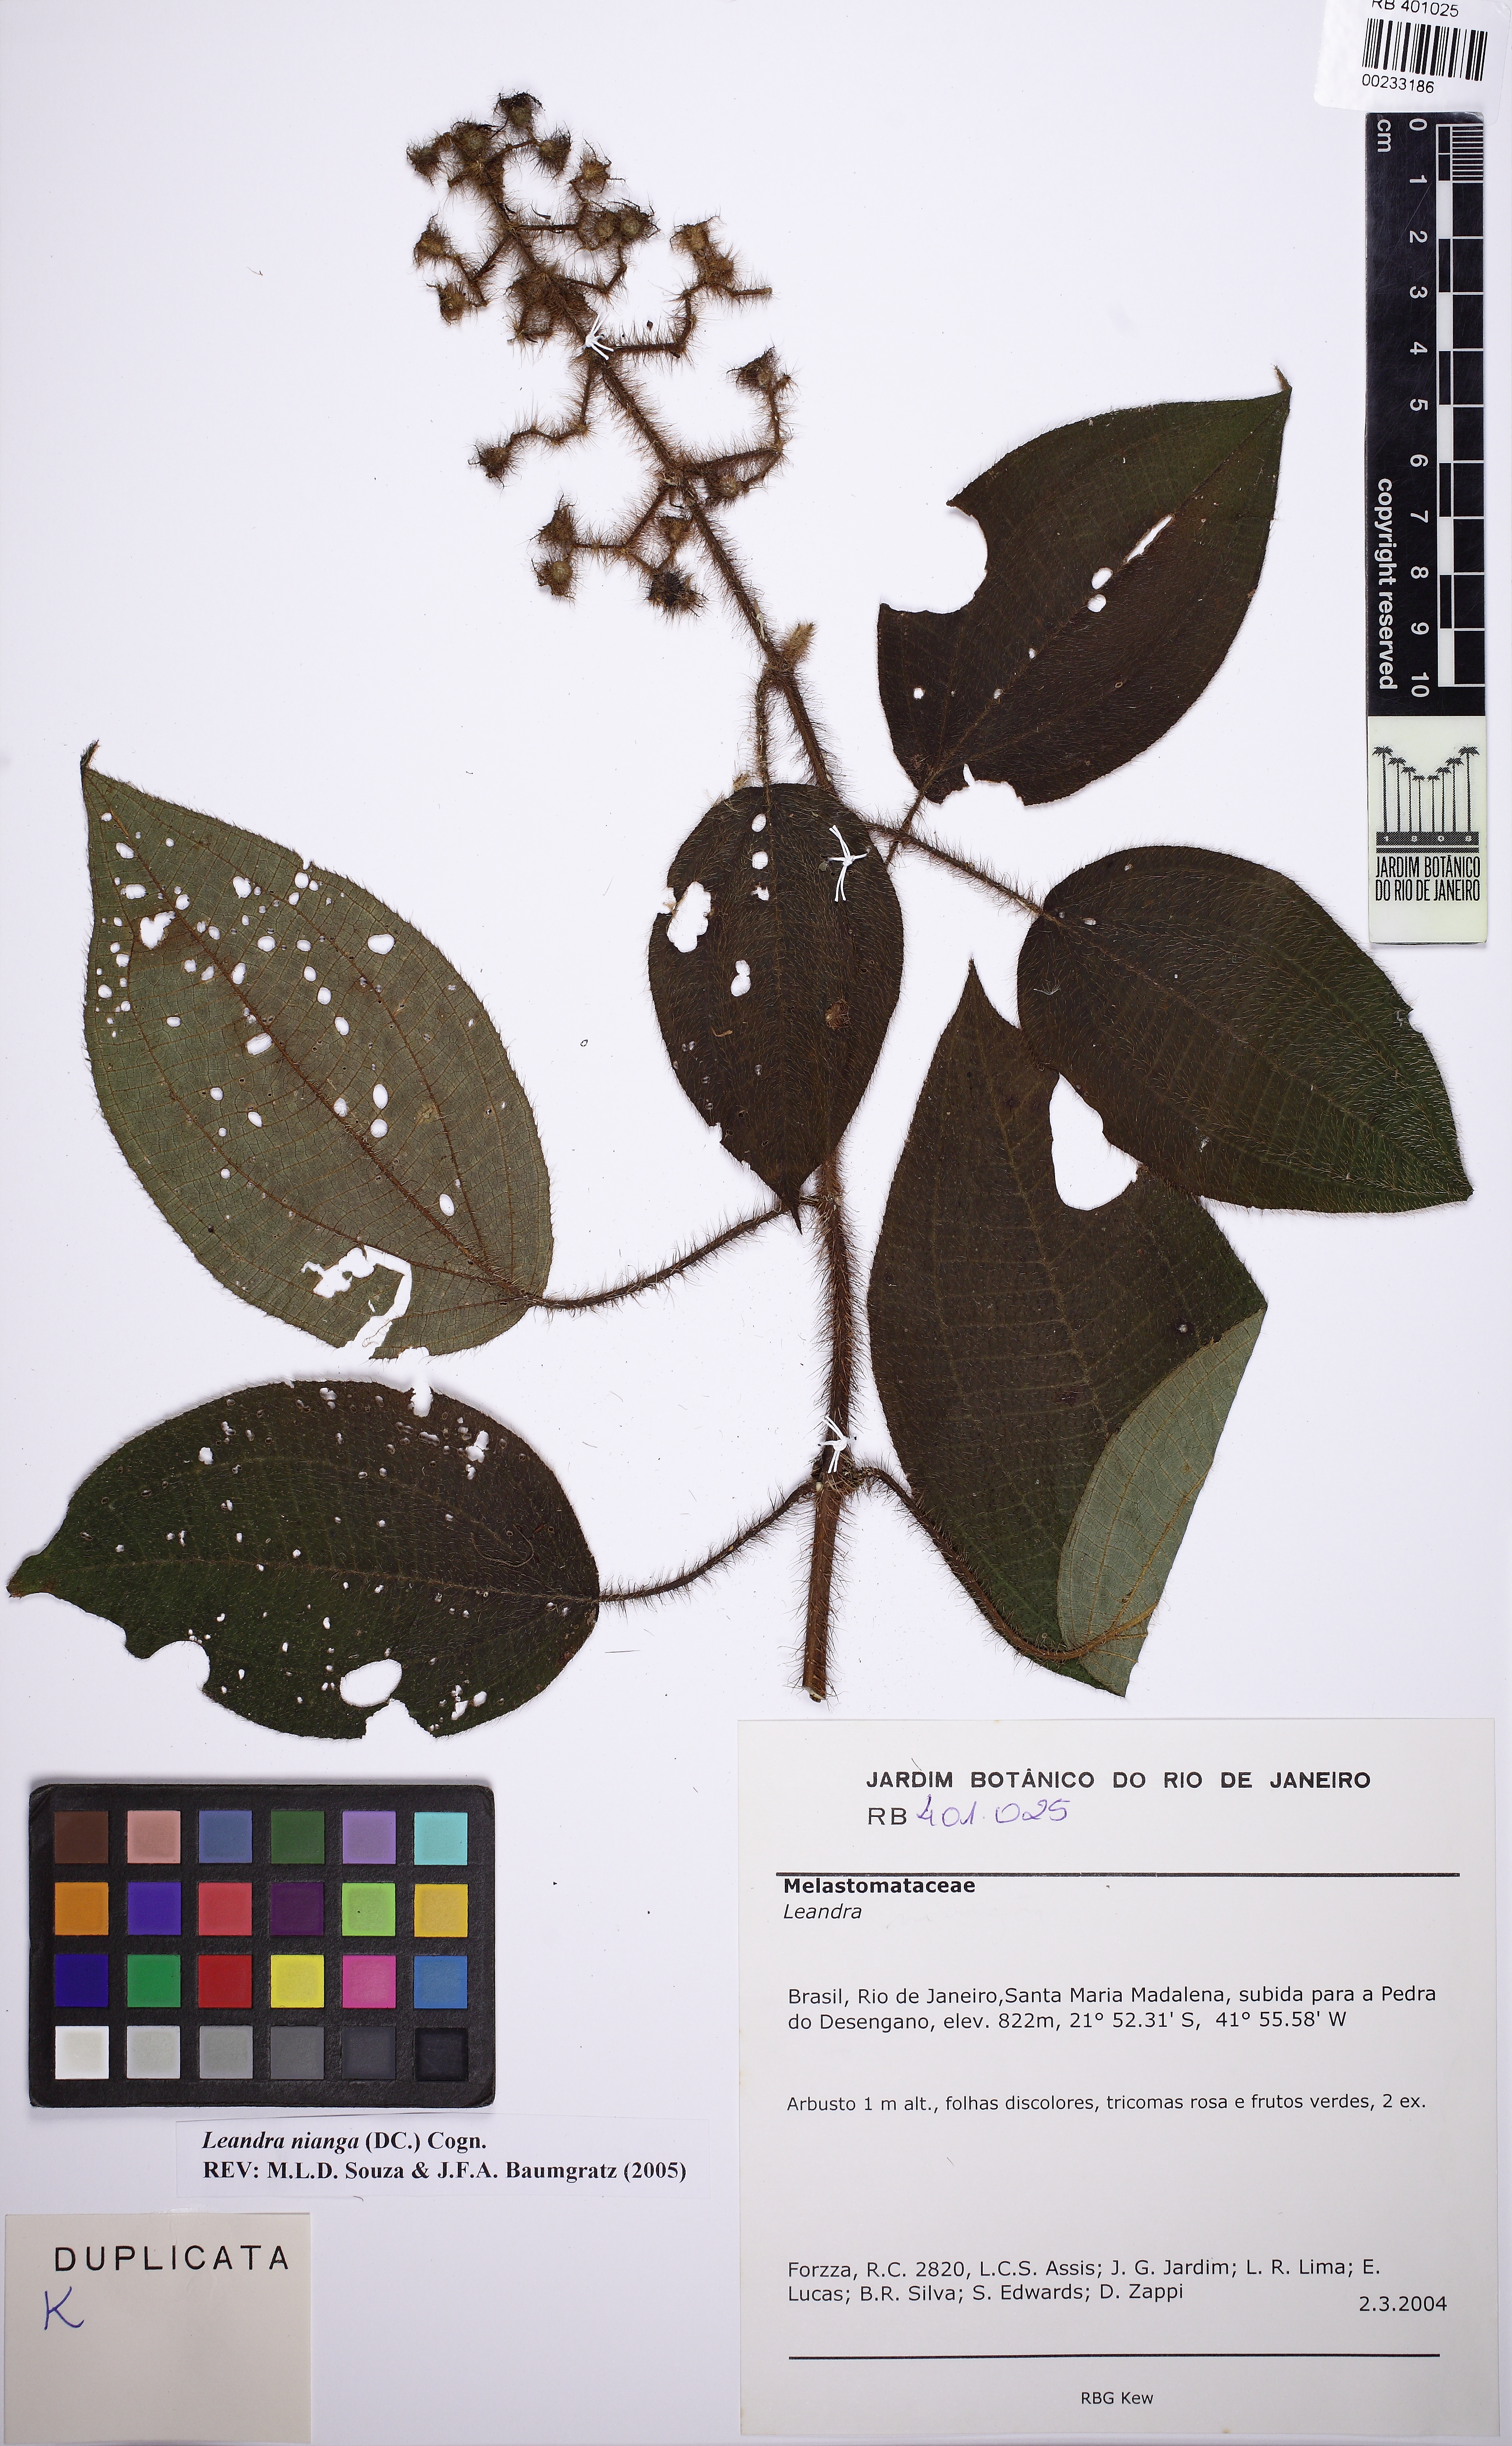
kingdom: Plantae
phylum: Tracheophyta
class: Magnoliopsida
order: Myrtales
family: Melastomataceae
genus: Miconia
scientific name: Miconia nianga
